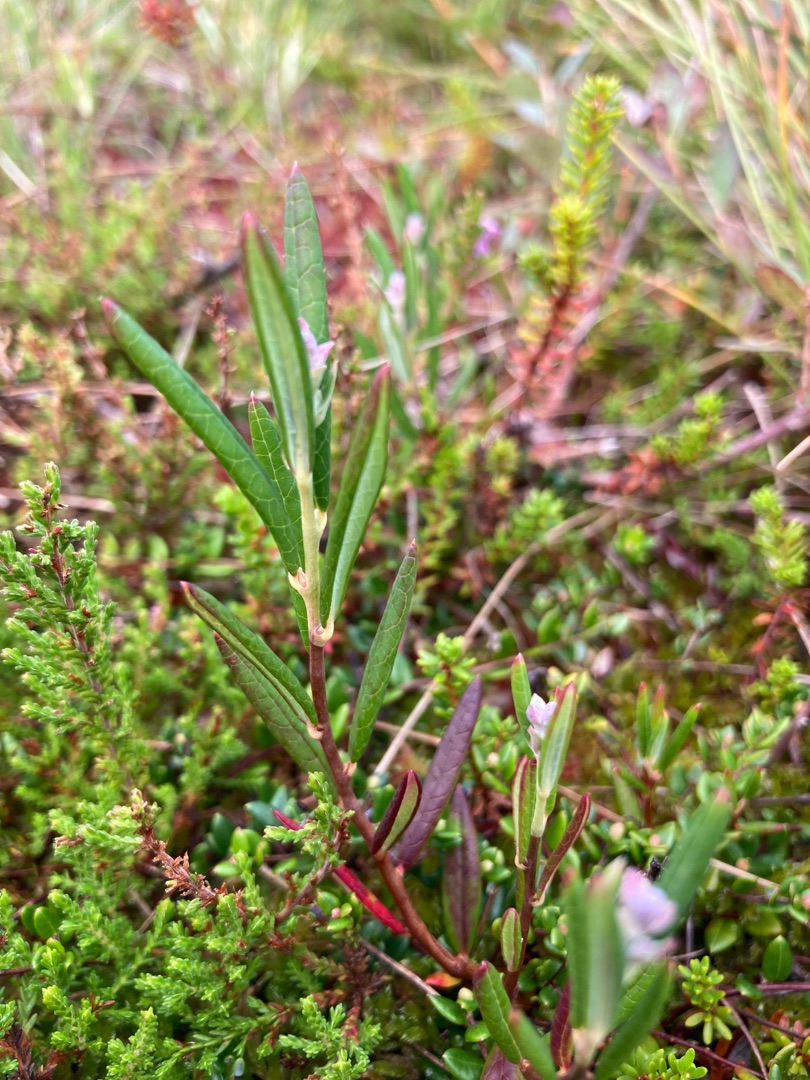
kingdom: Plantae
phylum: Tracheophyta
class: Magnoliopsida
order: Ericales
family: Ericaceae
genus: Andromeda
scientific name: Andromeda polifolia
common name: Rosmarinlyng
